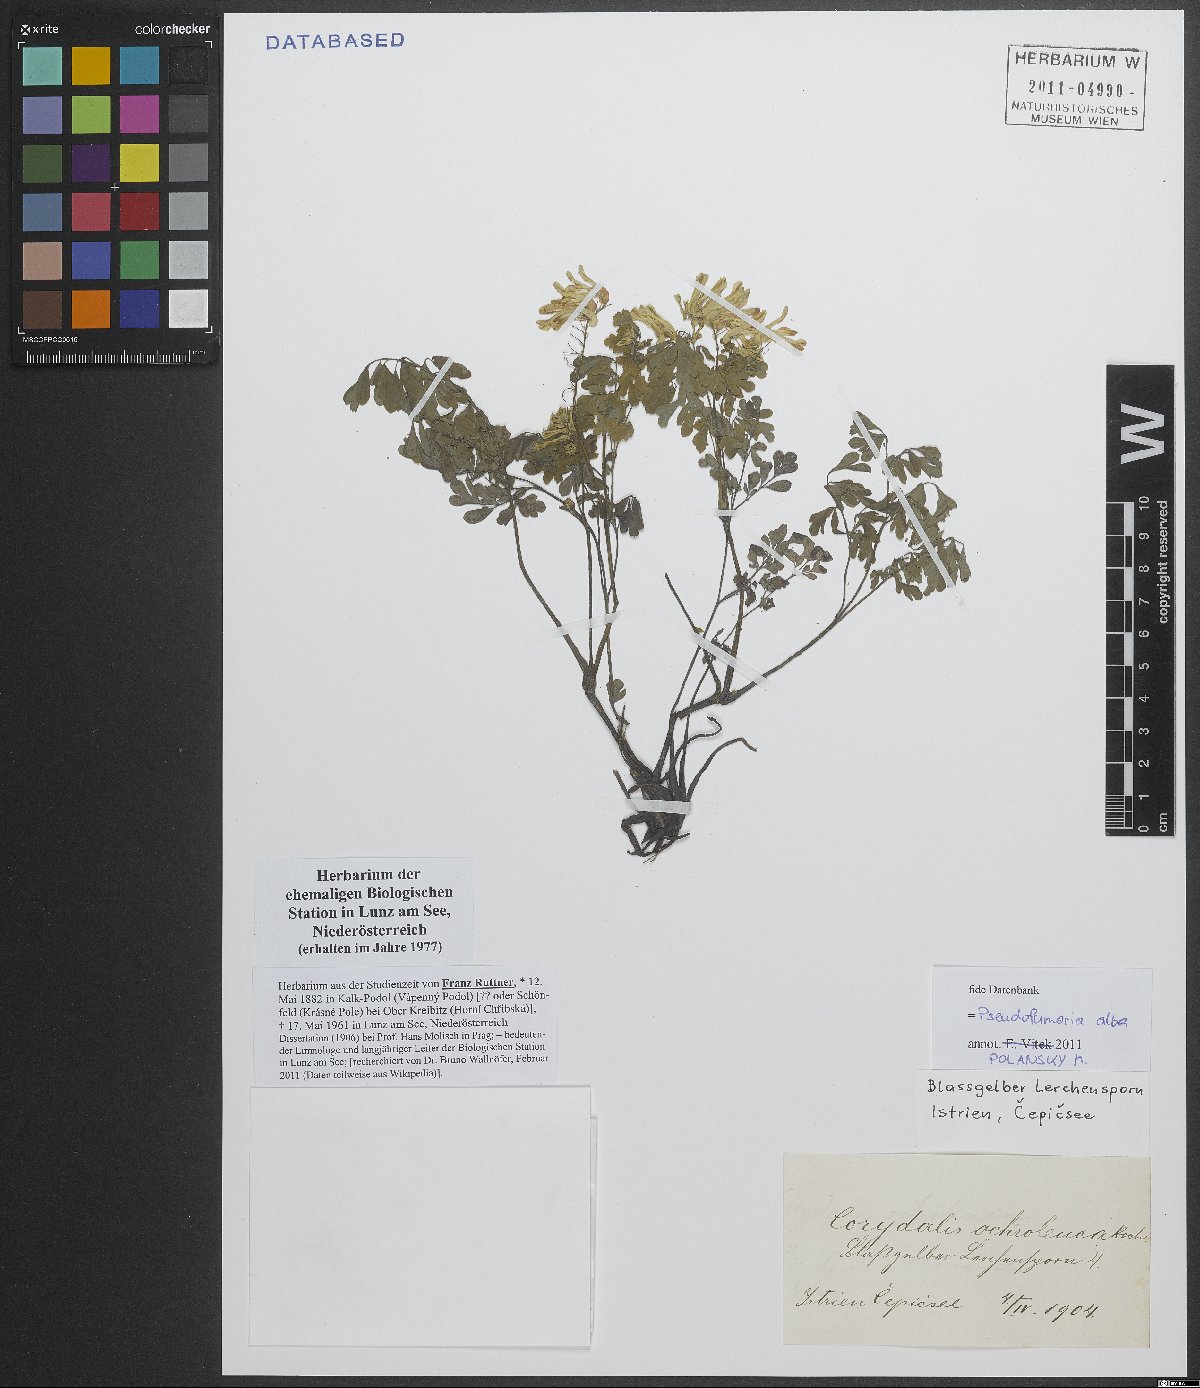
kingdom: Plantae
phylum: Tracheophyta
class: Magnoliopsida
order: Ranunculales
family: Papaveraceae
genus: Pseudofumaria
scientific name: Pseudofumaria alba
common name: Pale corydalis
